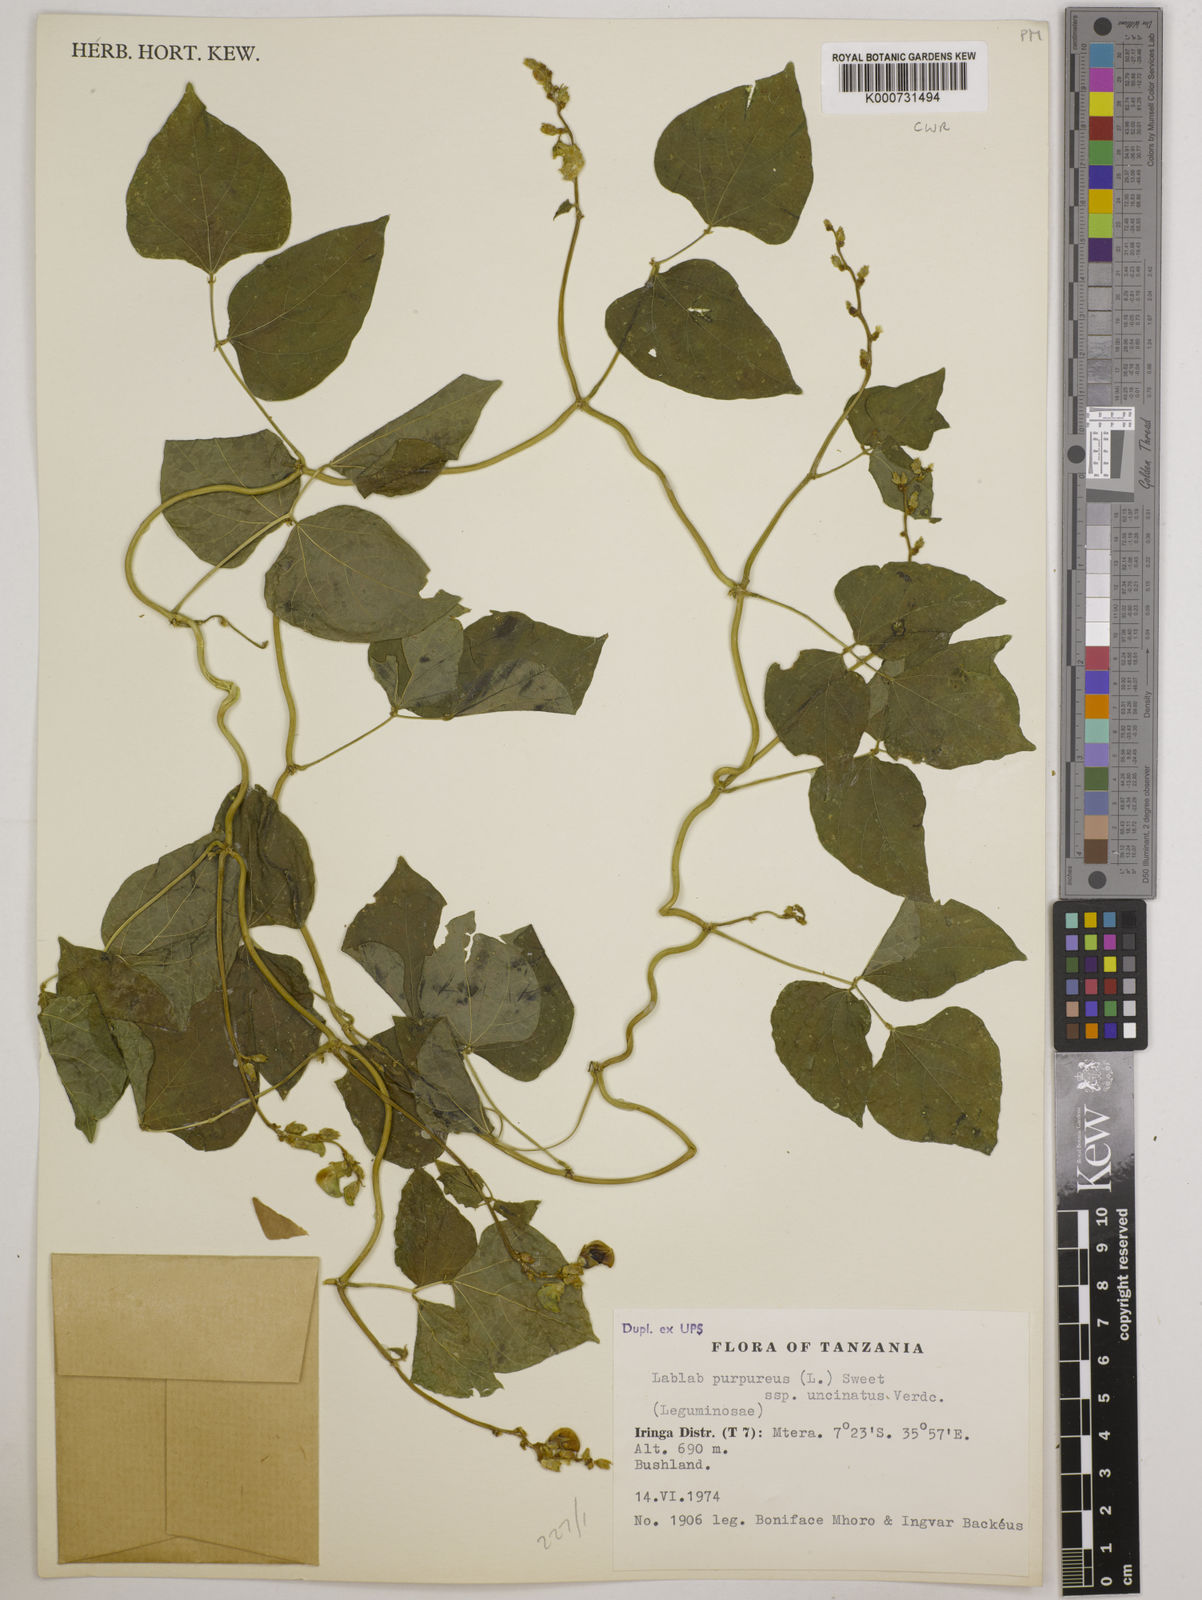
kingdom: Plantae
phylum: Tracheophyta
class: Magnoliopsida
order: Fabales
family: Fabaceae
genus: Lablab
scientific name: Lablab purpureus
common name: Lablab-bean
